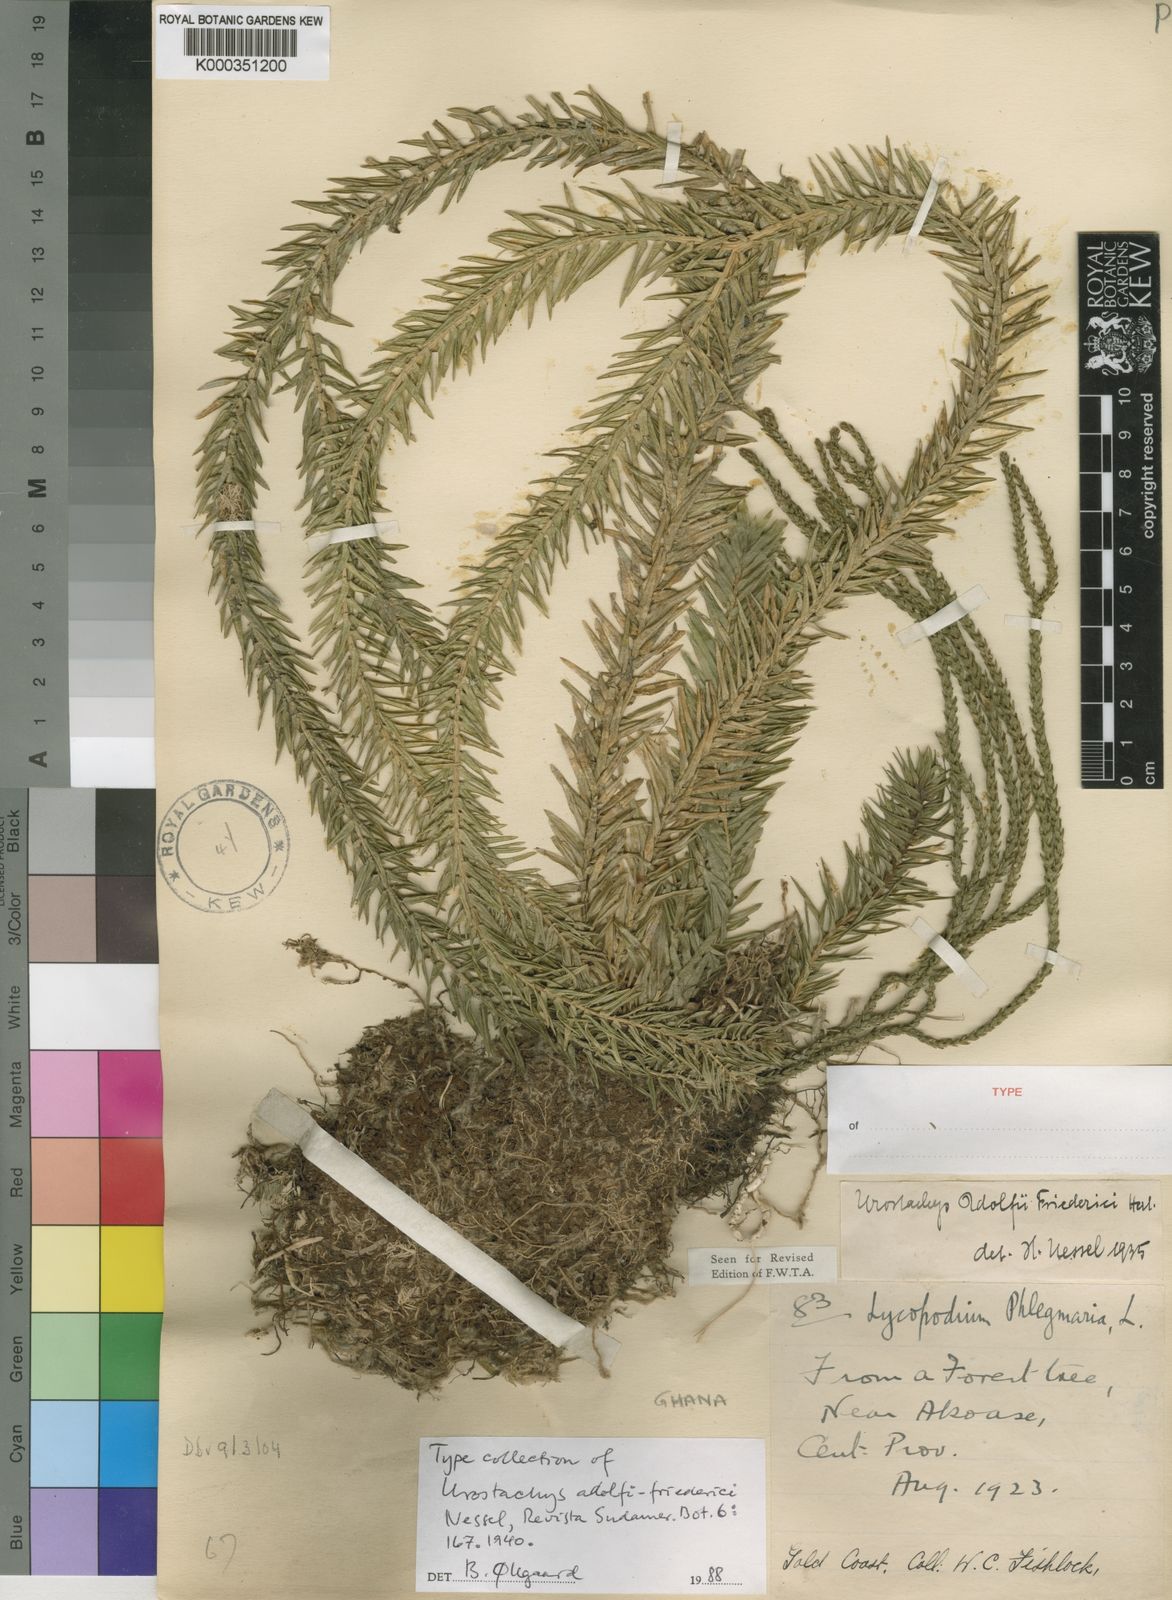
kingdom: Plantae
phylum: Tracheophyta
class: Lycopodiopsida
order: Lycopodiales
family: Lycopodiaceae
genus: Lycopodium
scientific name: Lycopodium
